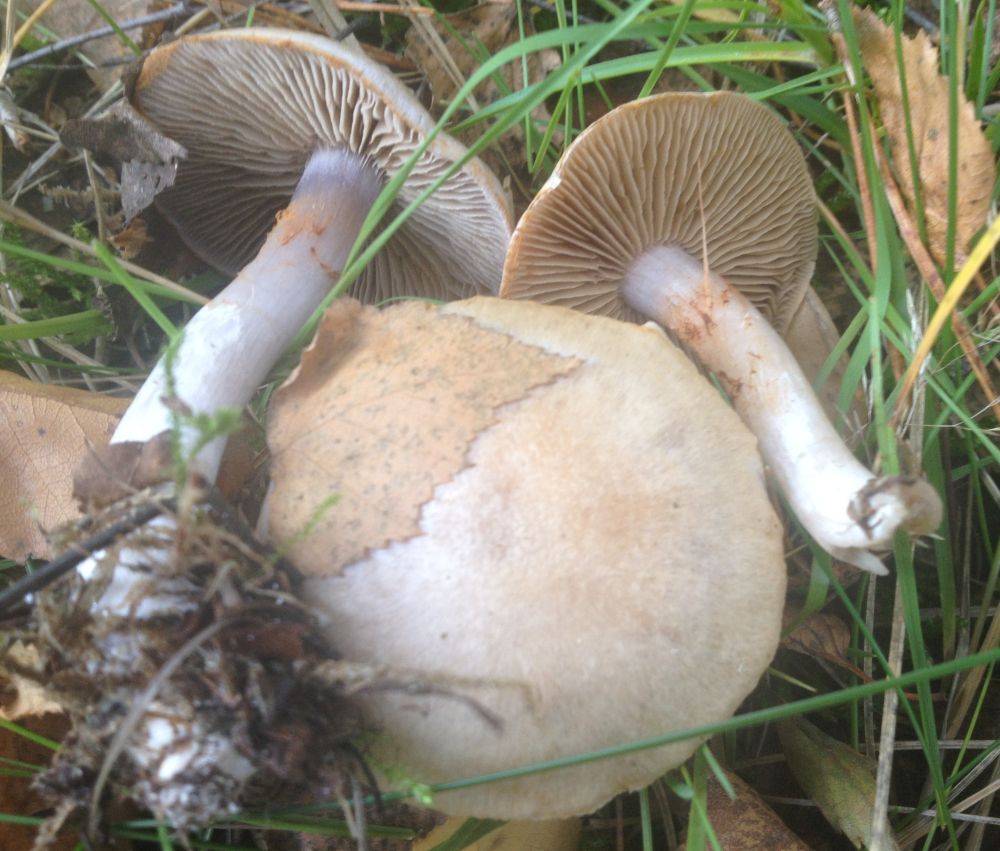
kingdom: Fungi
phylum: Basidiomycota
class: Agaricomycetes
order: Agaricales
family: Cortinariaceae
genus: Cortinarius
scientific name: Cortinarius
